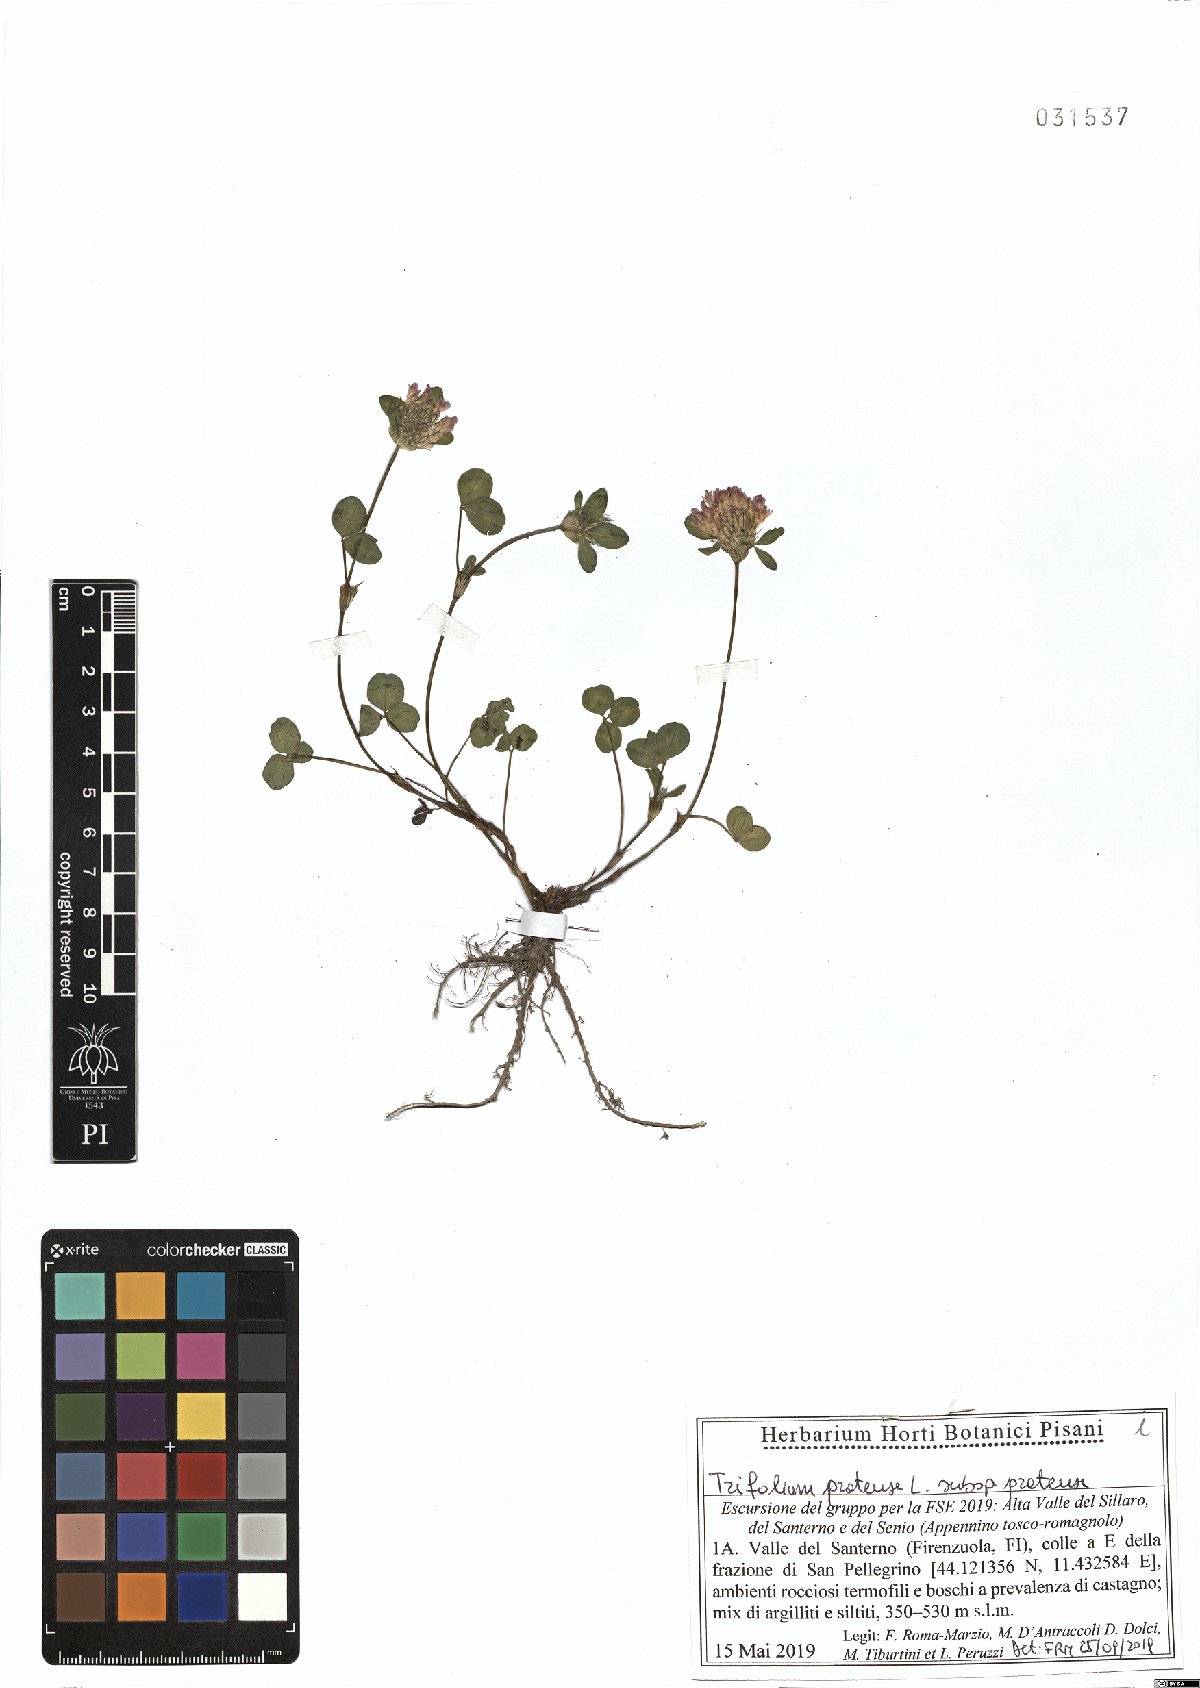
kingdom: Plantae
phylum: Tracheophyta
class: Magnoliopsida
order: Fabales
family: Fabaceae
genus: Trifolium
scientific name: Trifolium pratense
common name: Red clover
